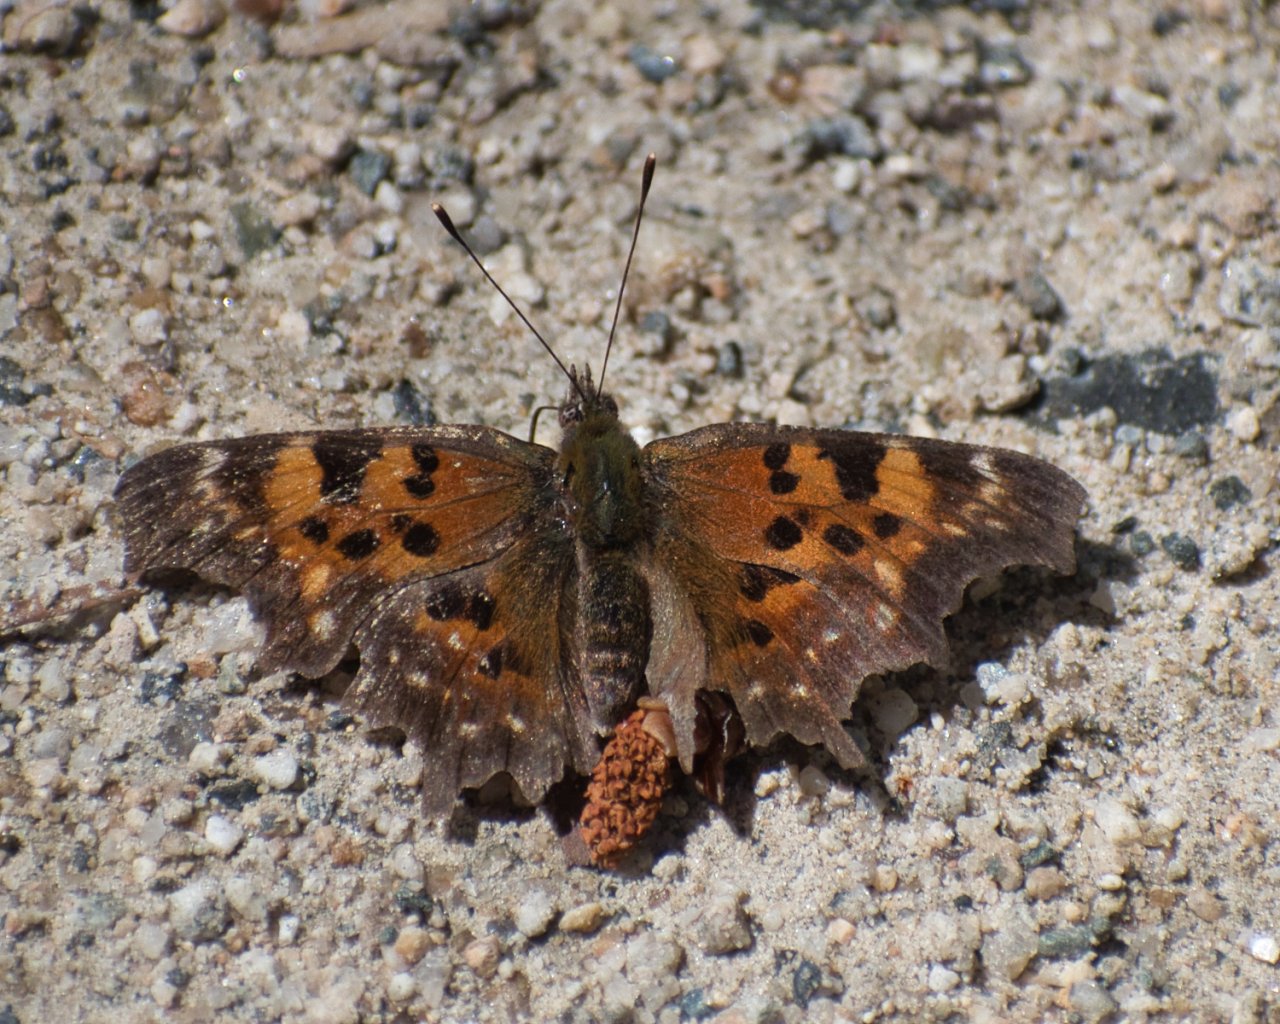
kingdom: Animalia
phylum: Arthropoda
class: Insecta
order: Lepidoptera
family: Nymphalidae
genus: Polygonia
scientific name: Polygonia faunus
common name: Green Comma
